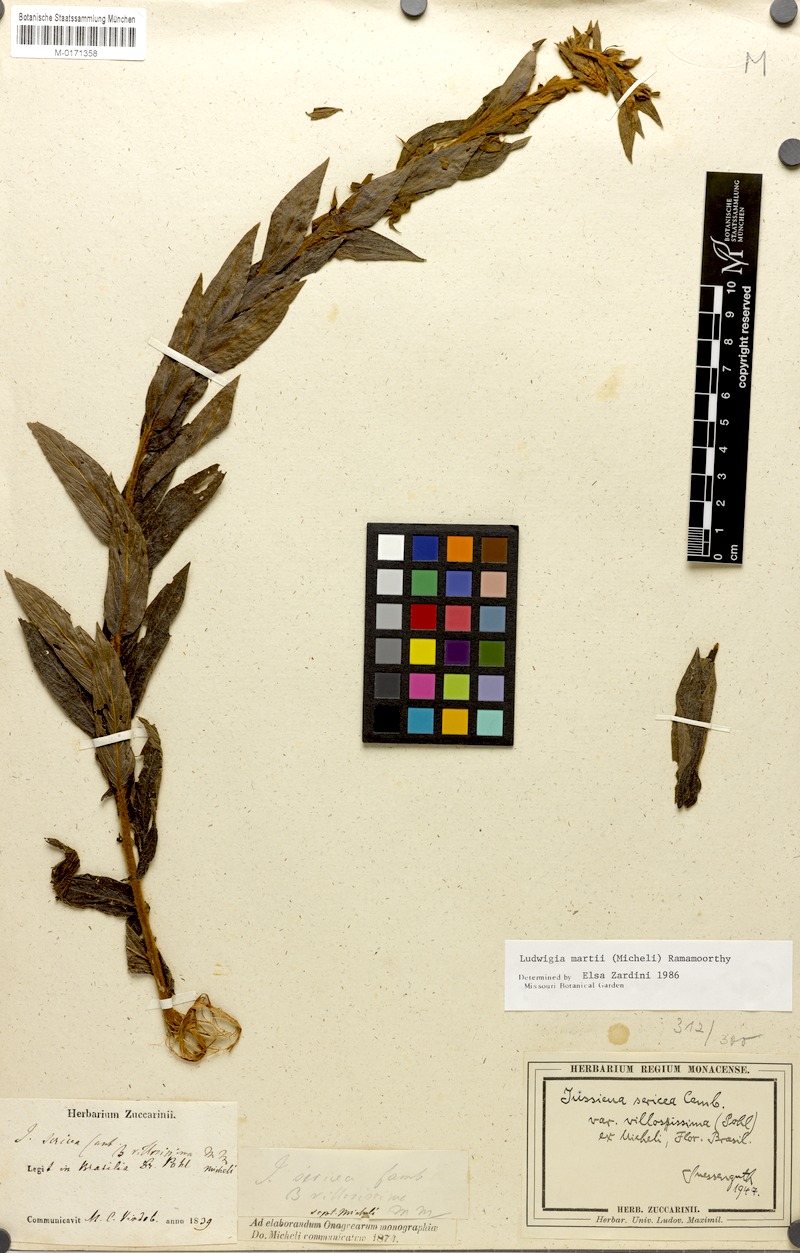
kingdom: Plantae
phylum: Tracheophyta
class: Magnoliopsida
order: Myrtales
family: Onagraceae
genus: Ludwigia
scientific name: Ludwigia martii
